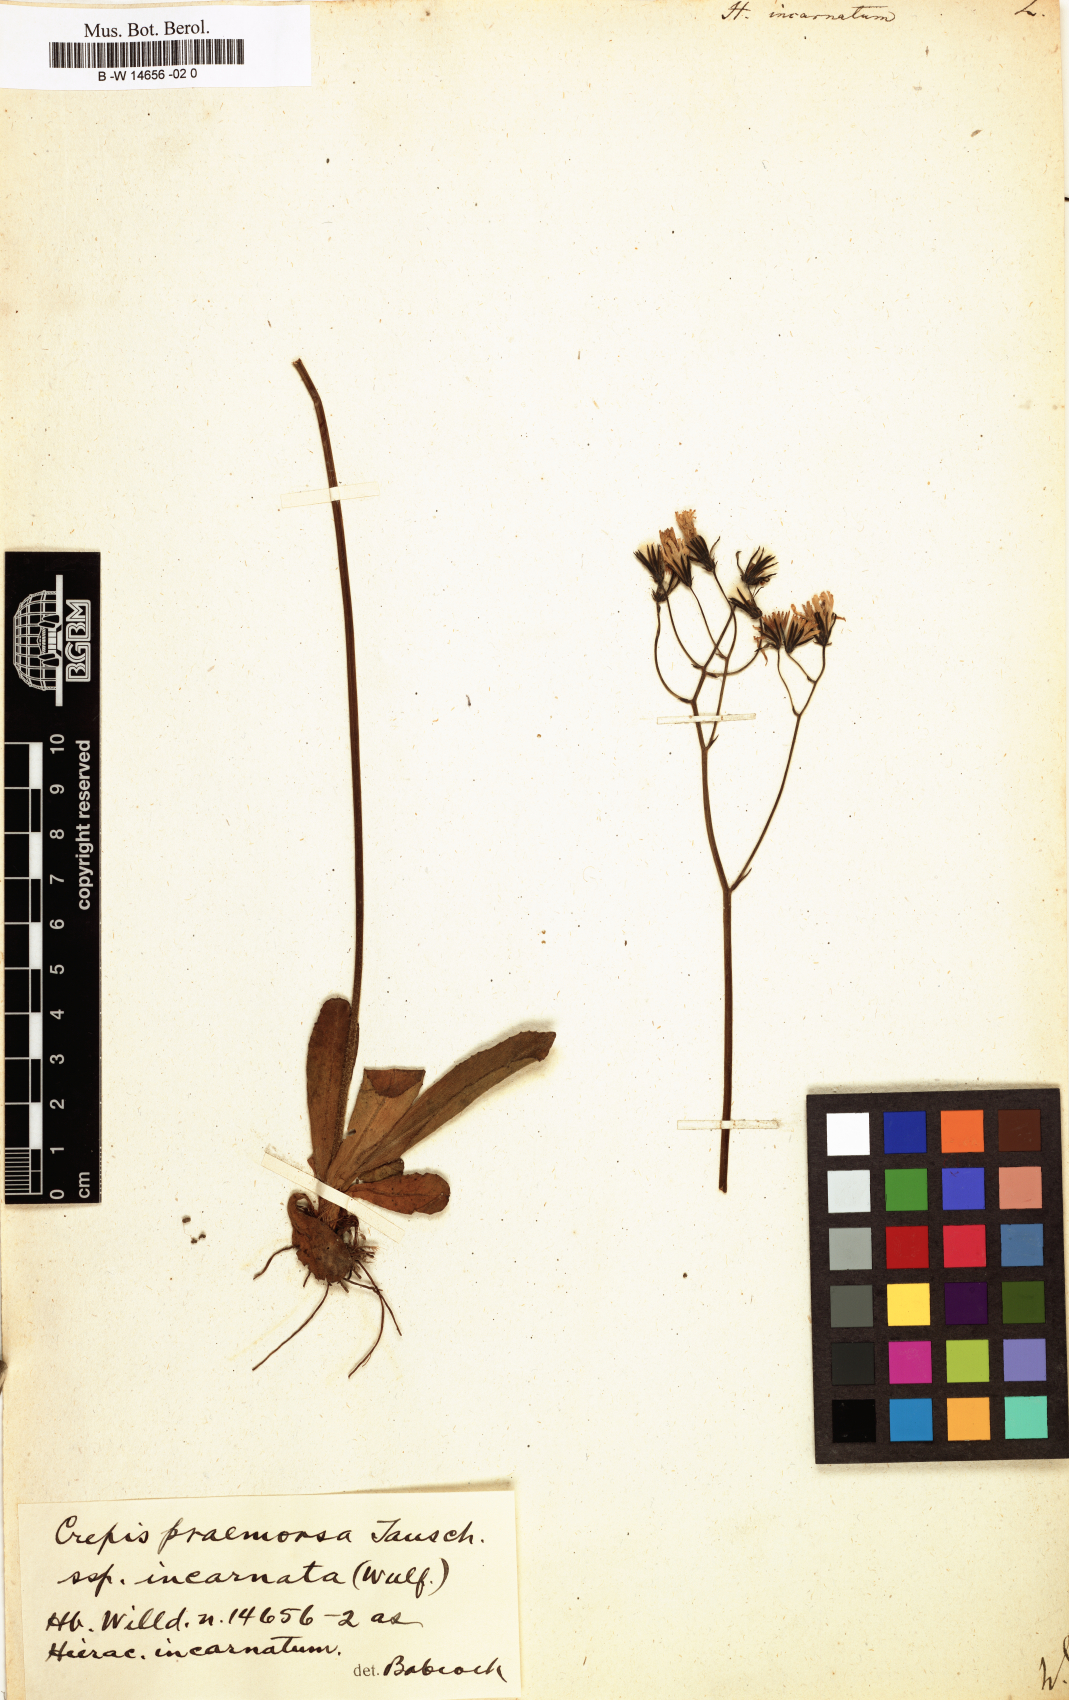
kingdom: Plantae
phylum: Tracheophyta
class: Magnoliopsida
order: Asterales
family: Asteraceae
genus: Hieracium
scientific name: Hieracium
